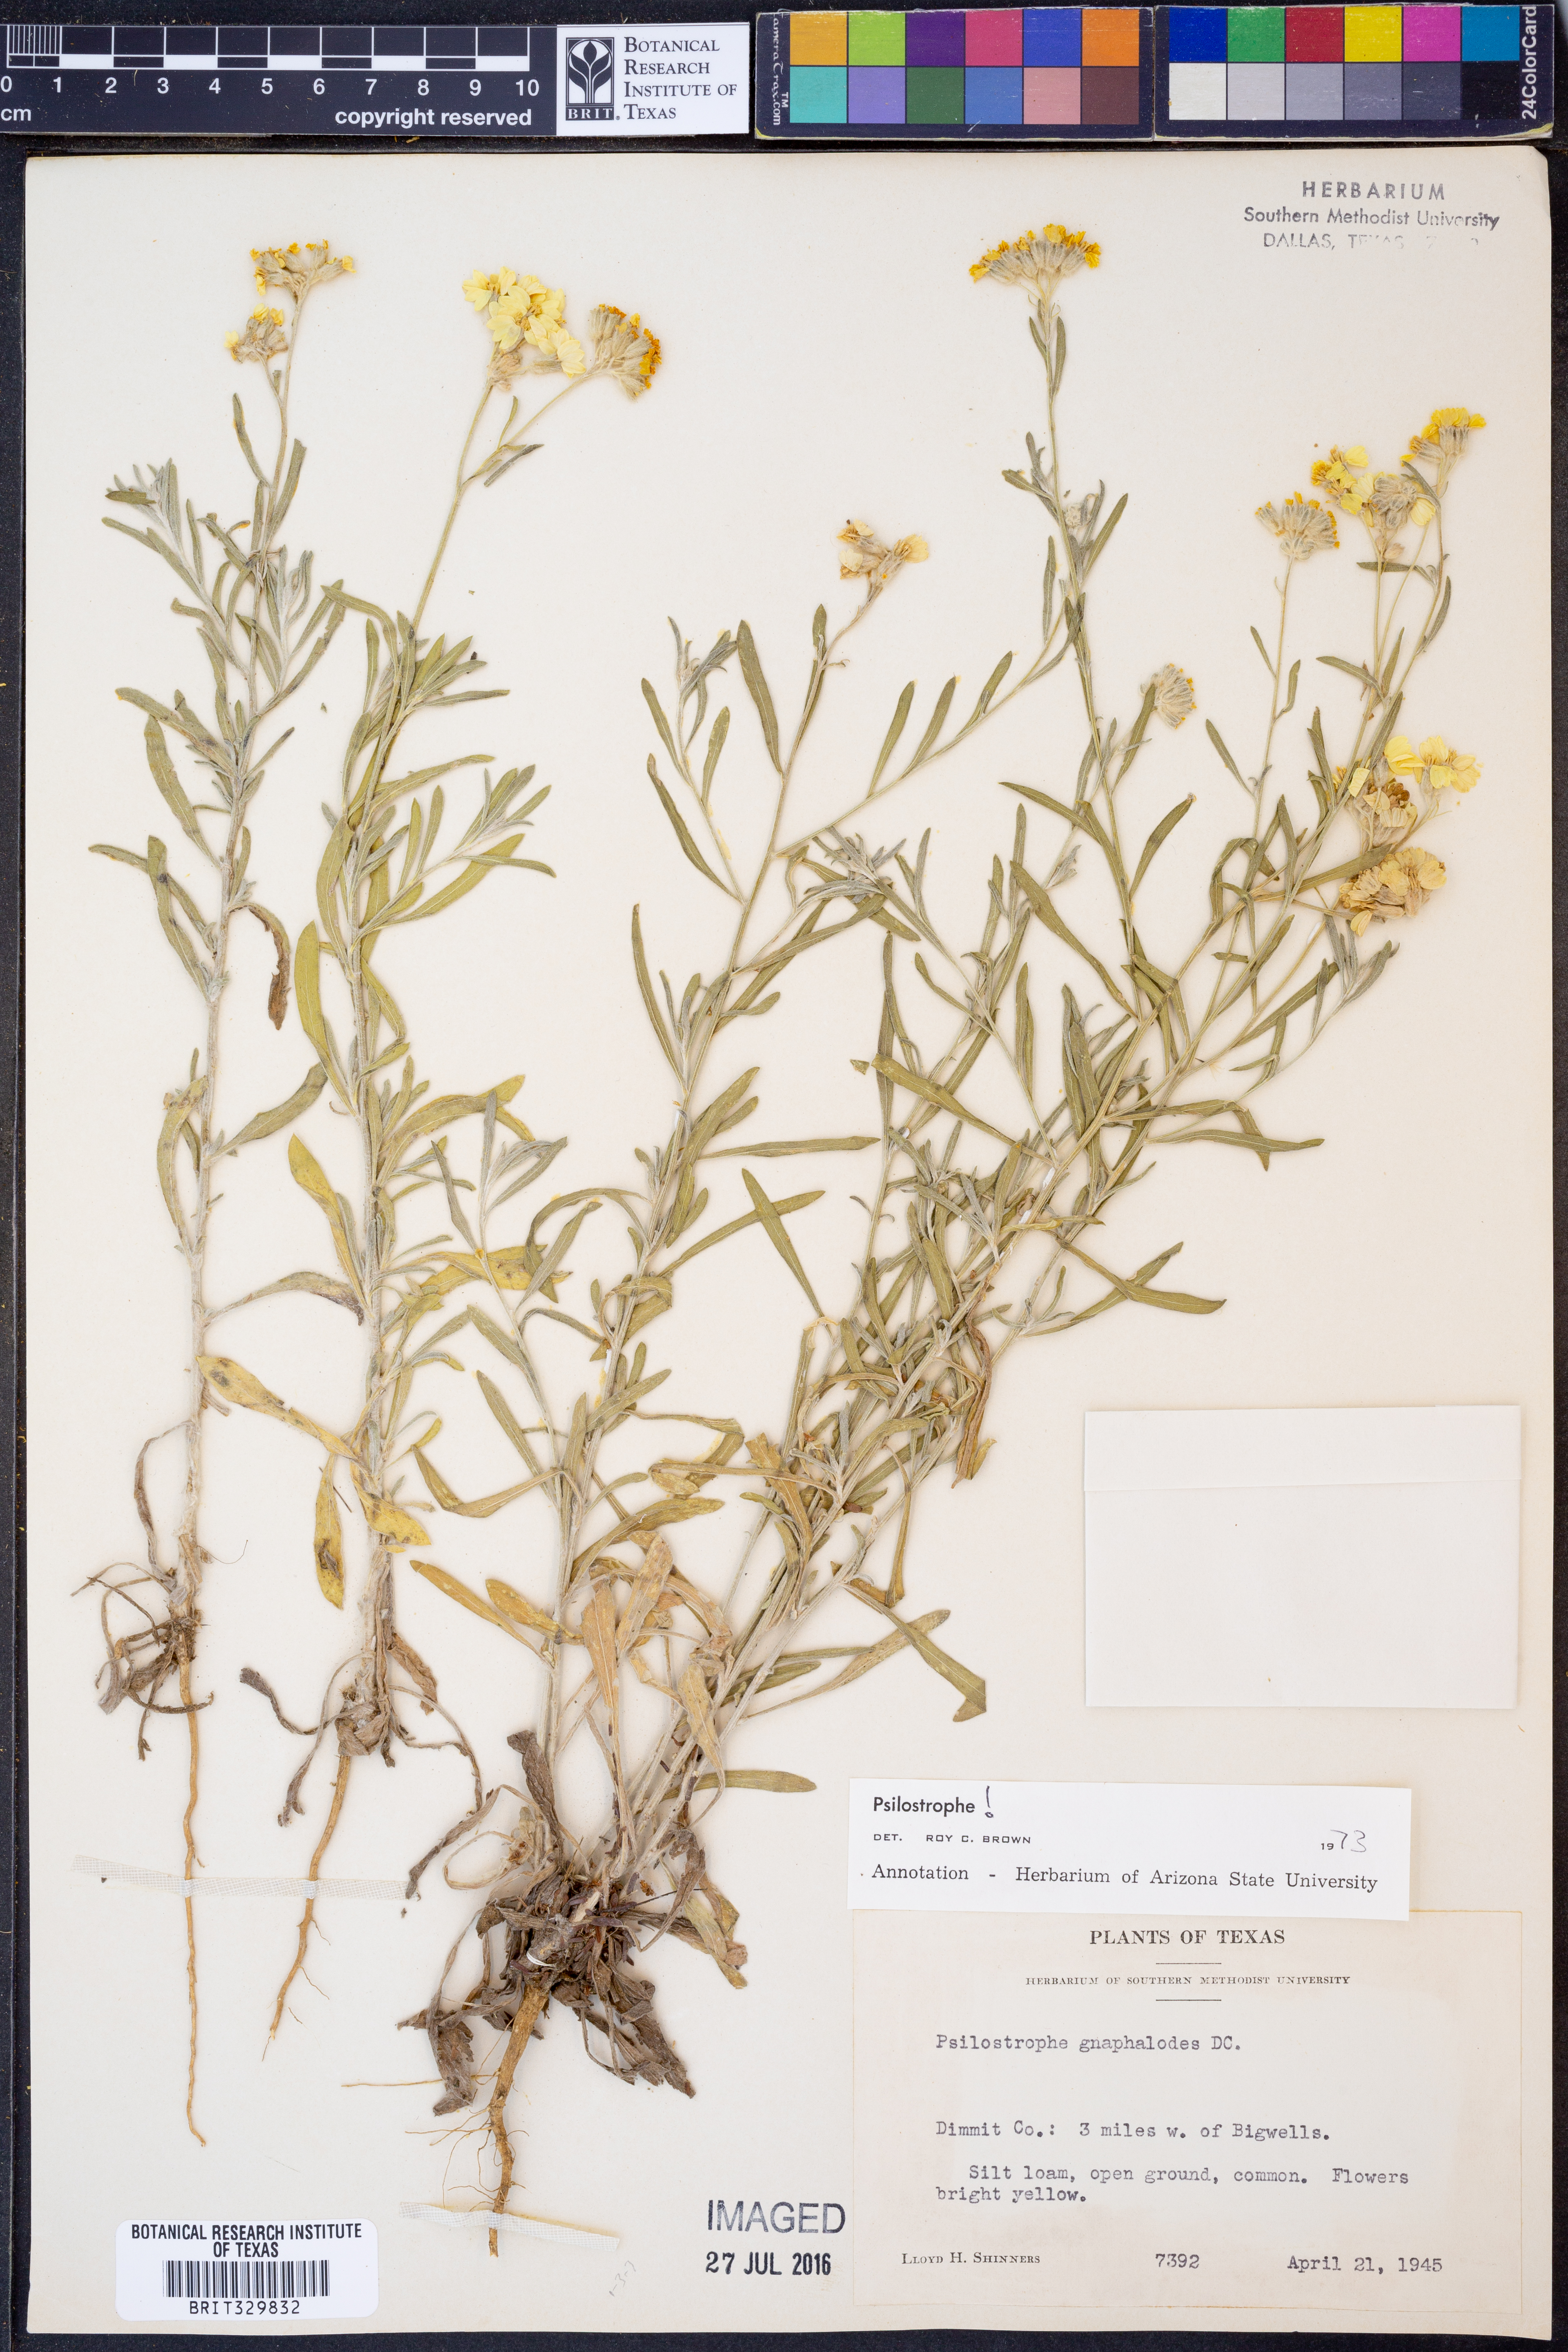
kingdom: Plantae
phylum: Tracheophyta
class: Magnoliopsida
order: Asterales
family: Asteraceae
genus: Psilostrophe
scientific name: Psilostrophe gnaphalioides
